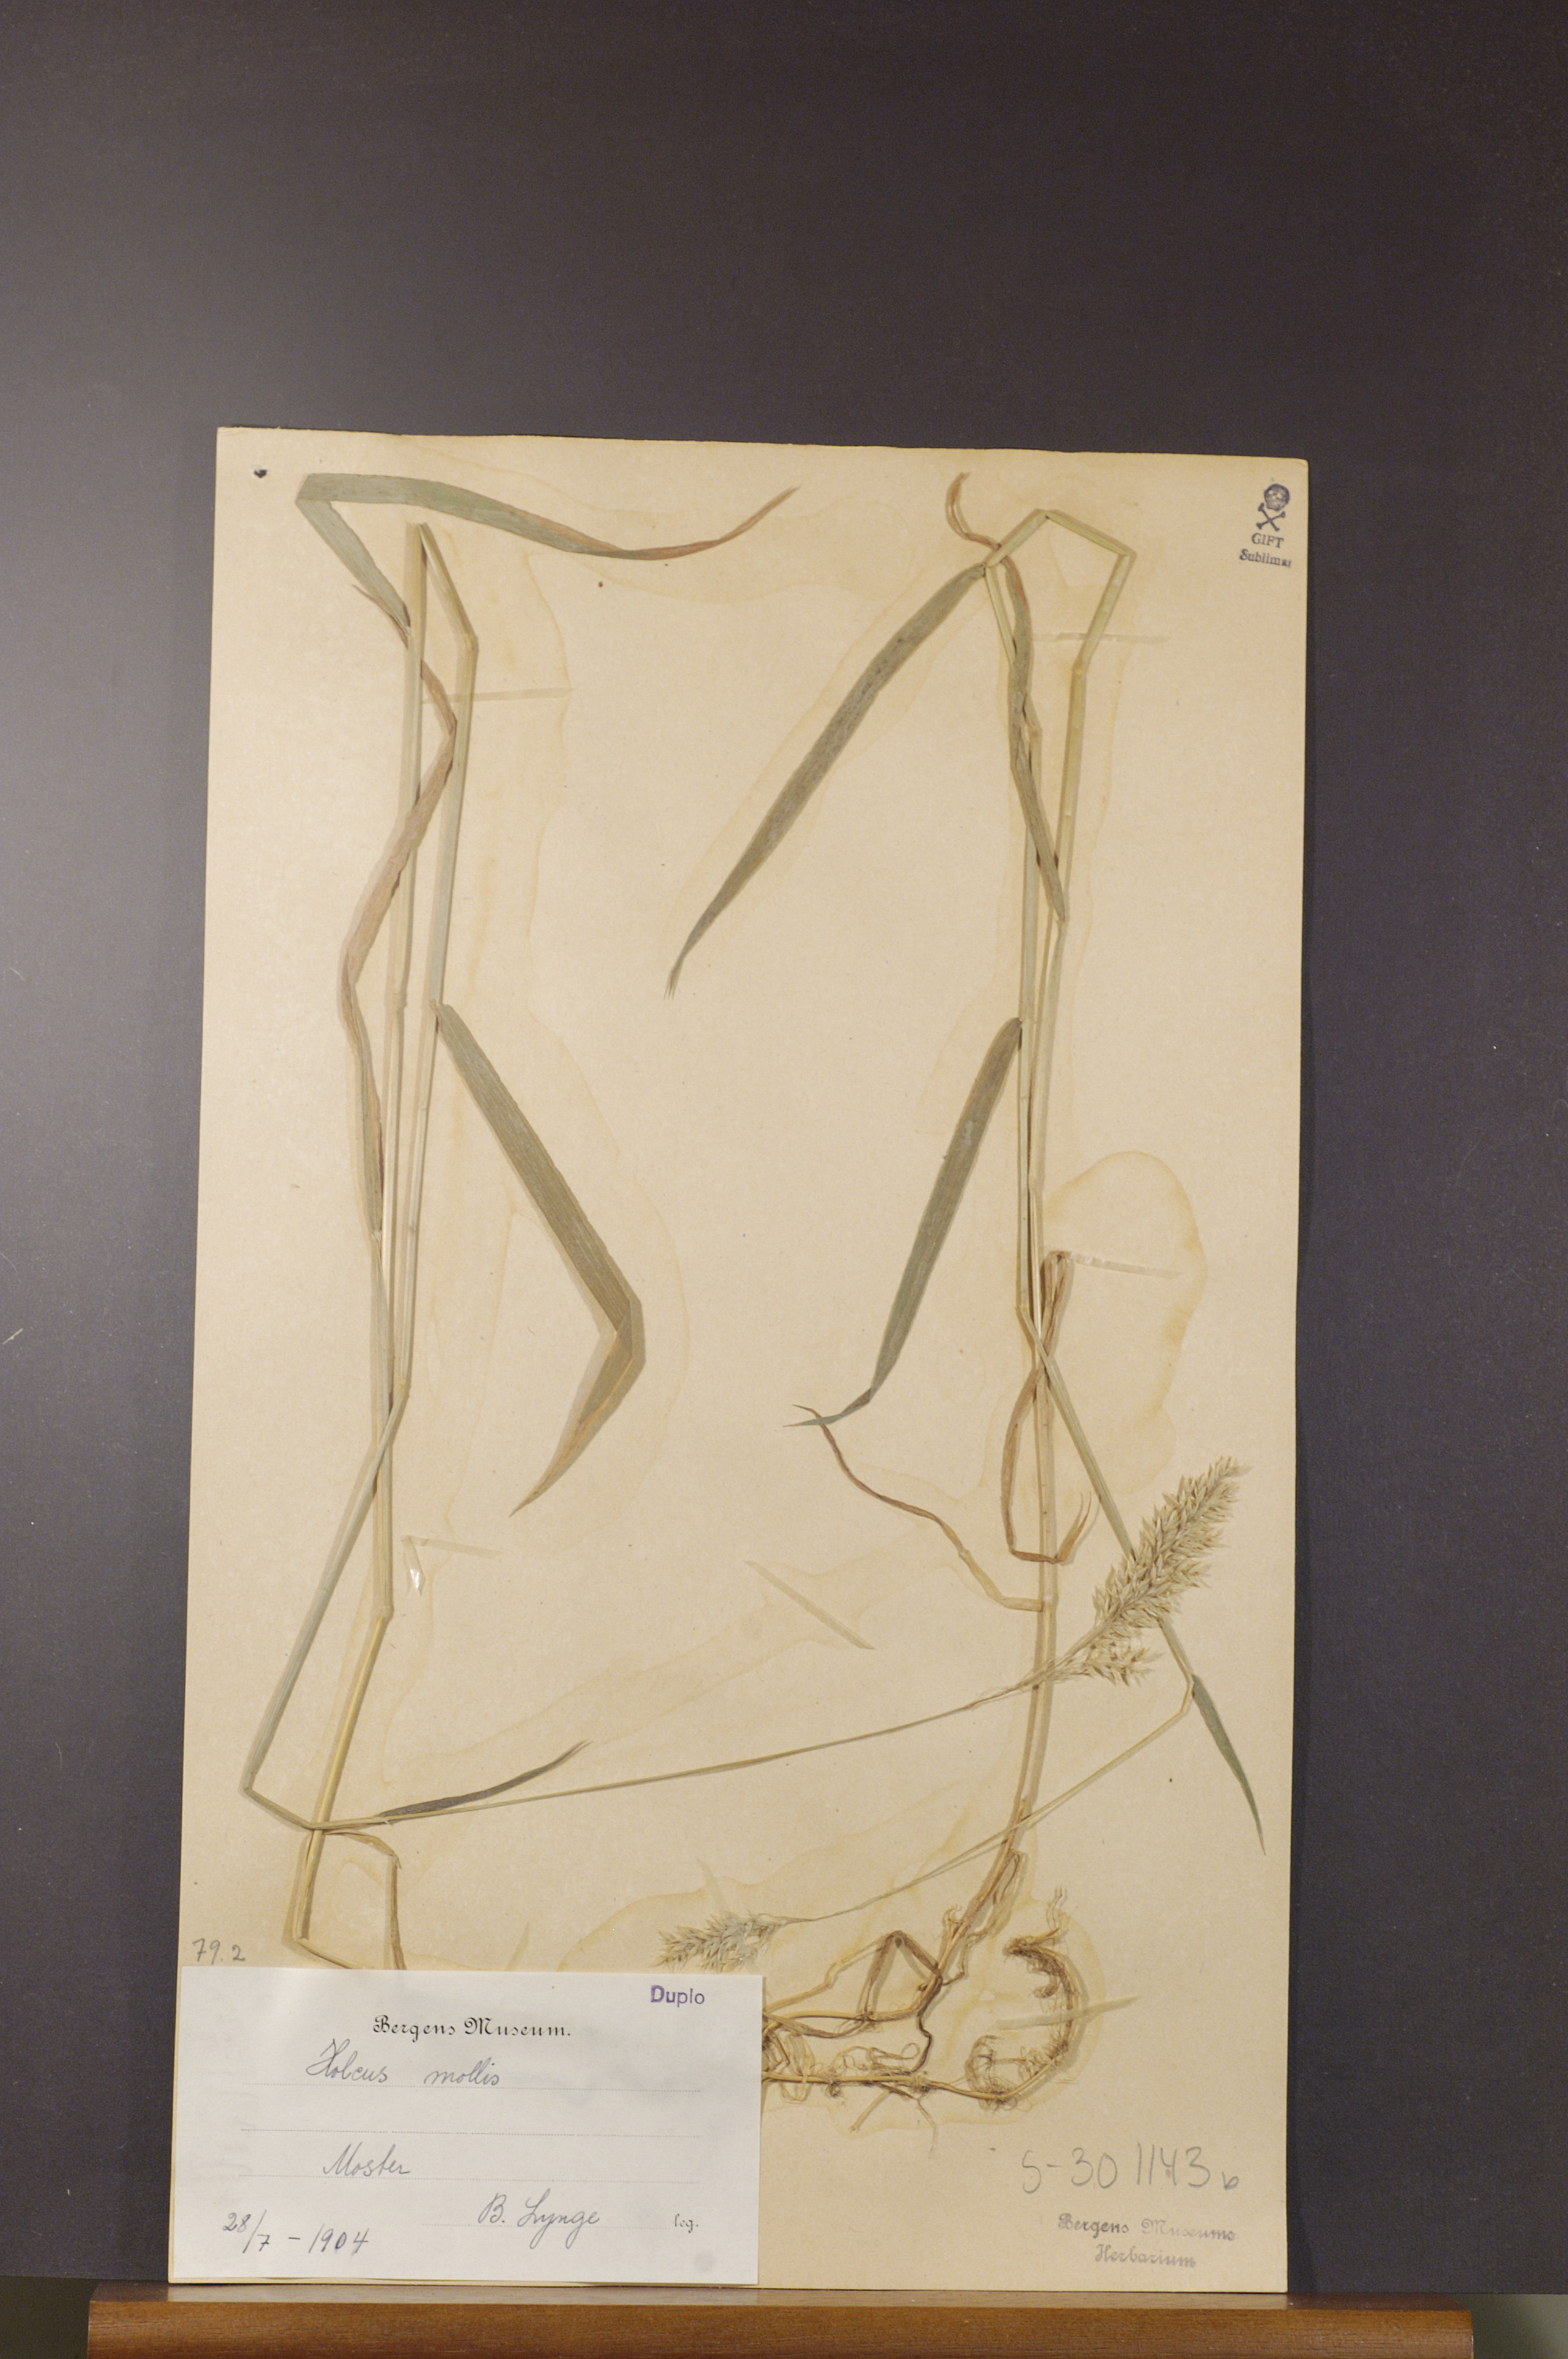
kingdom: Plantae
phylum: Tracheophyta
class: Liliopsida
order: Poales
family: Poaceae
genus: Holcus
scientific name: Holcus mollis
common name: Creeping velvetgrass
